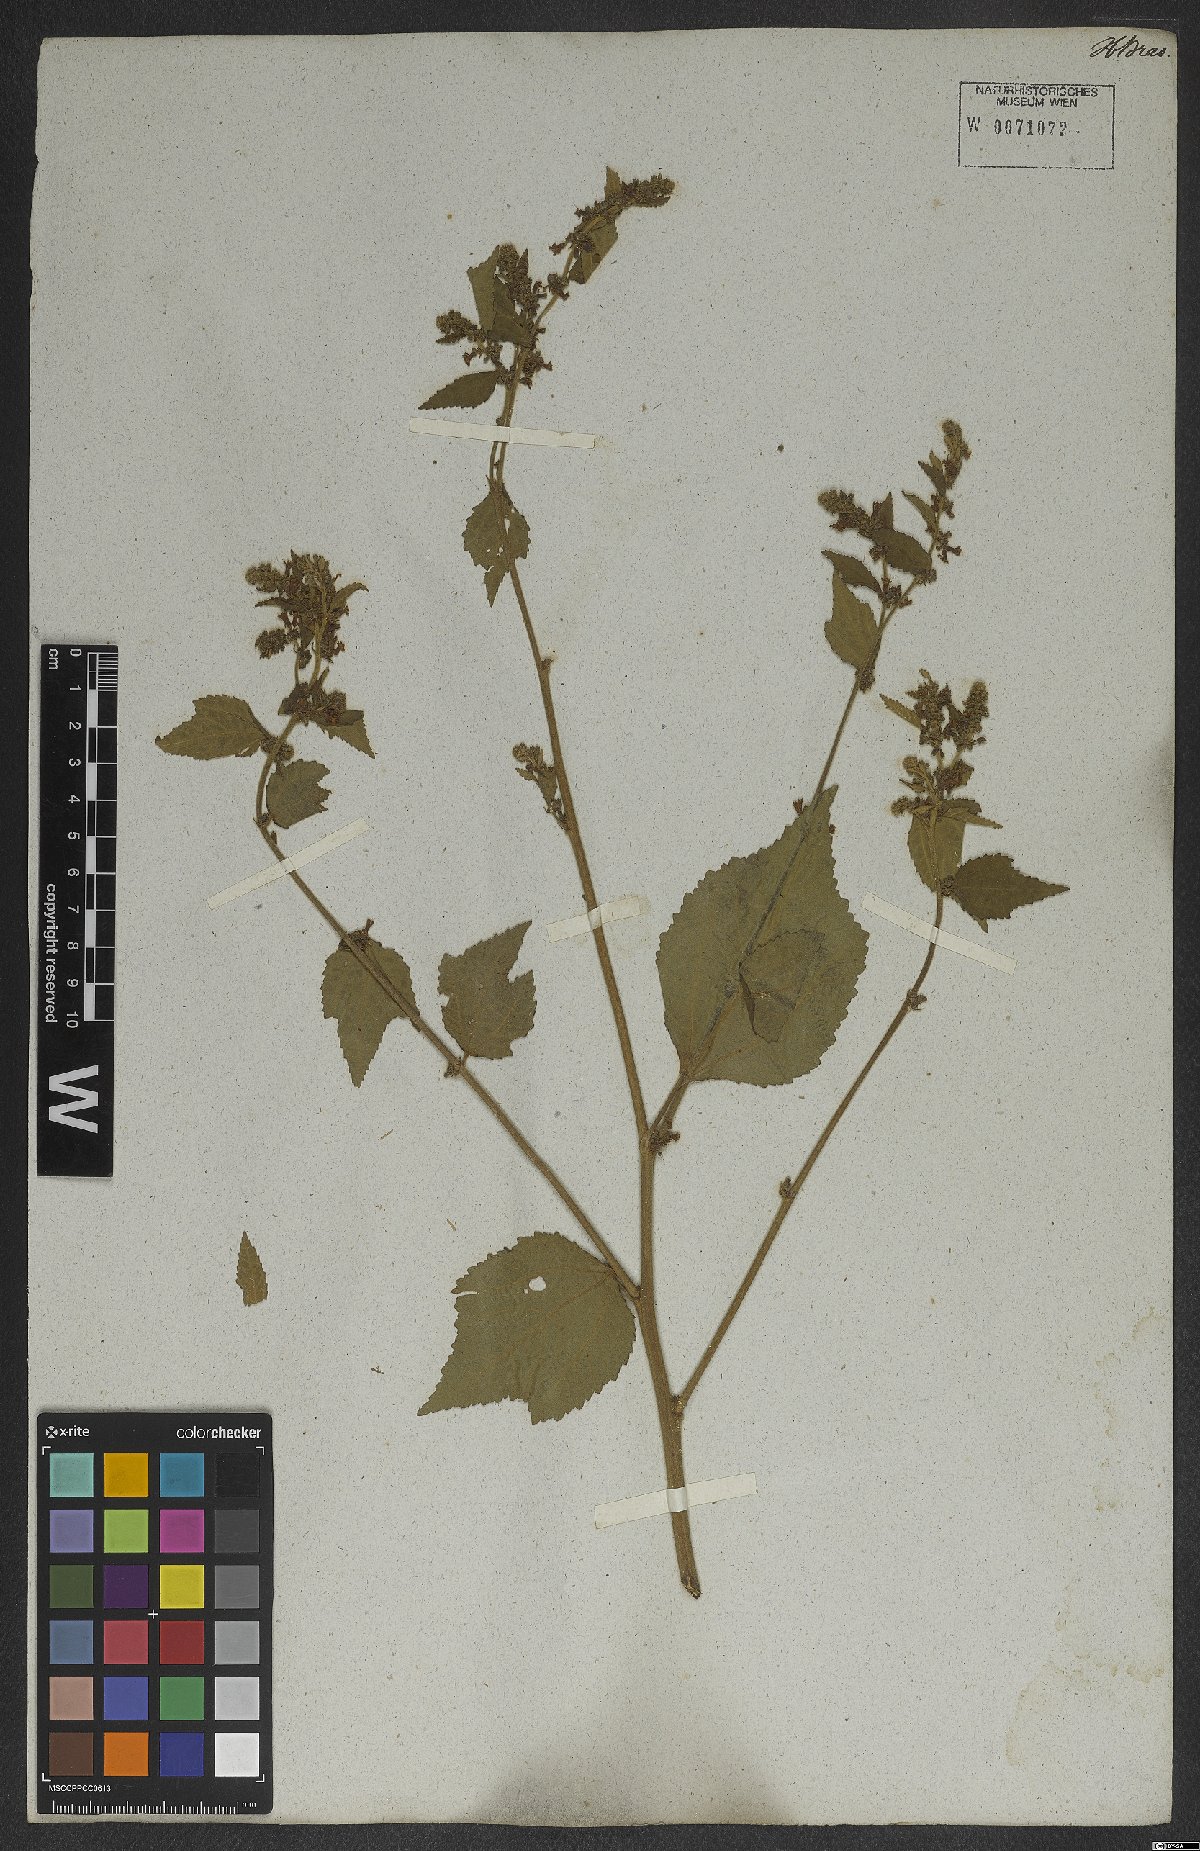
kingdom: Plantae
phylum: Tracheophyta
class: Magnoliopsida
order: Malvales
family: Malvaceae
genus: Triumfetta
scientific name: Triumfetta althaeoides
